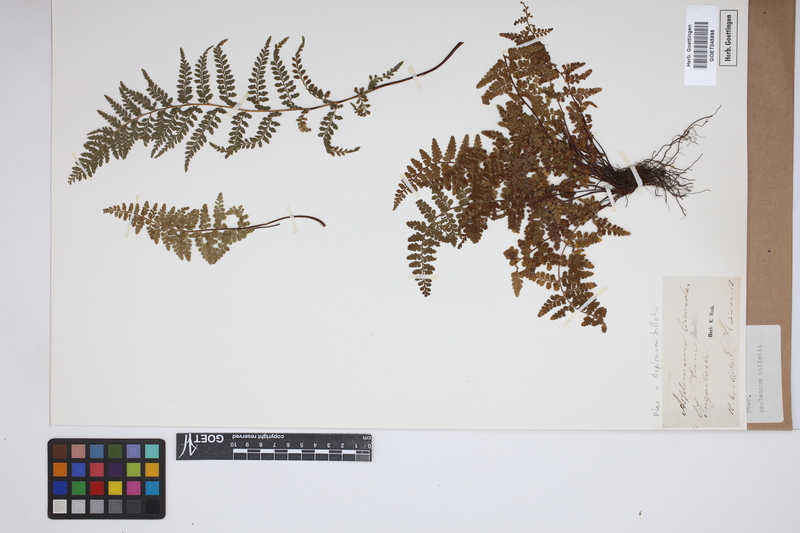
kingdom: Plantae
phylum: Tracheophyta
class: Polypodiopsida
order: Polypodiales
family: Aspleniaceae
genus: Asplenium
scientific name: Asplenium obovatum
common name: Lanceolate spleenwort
